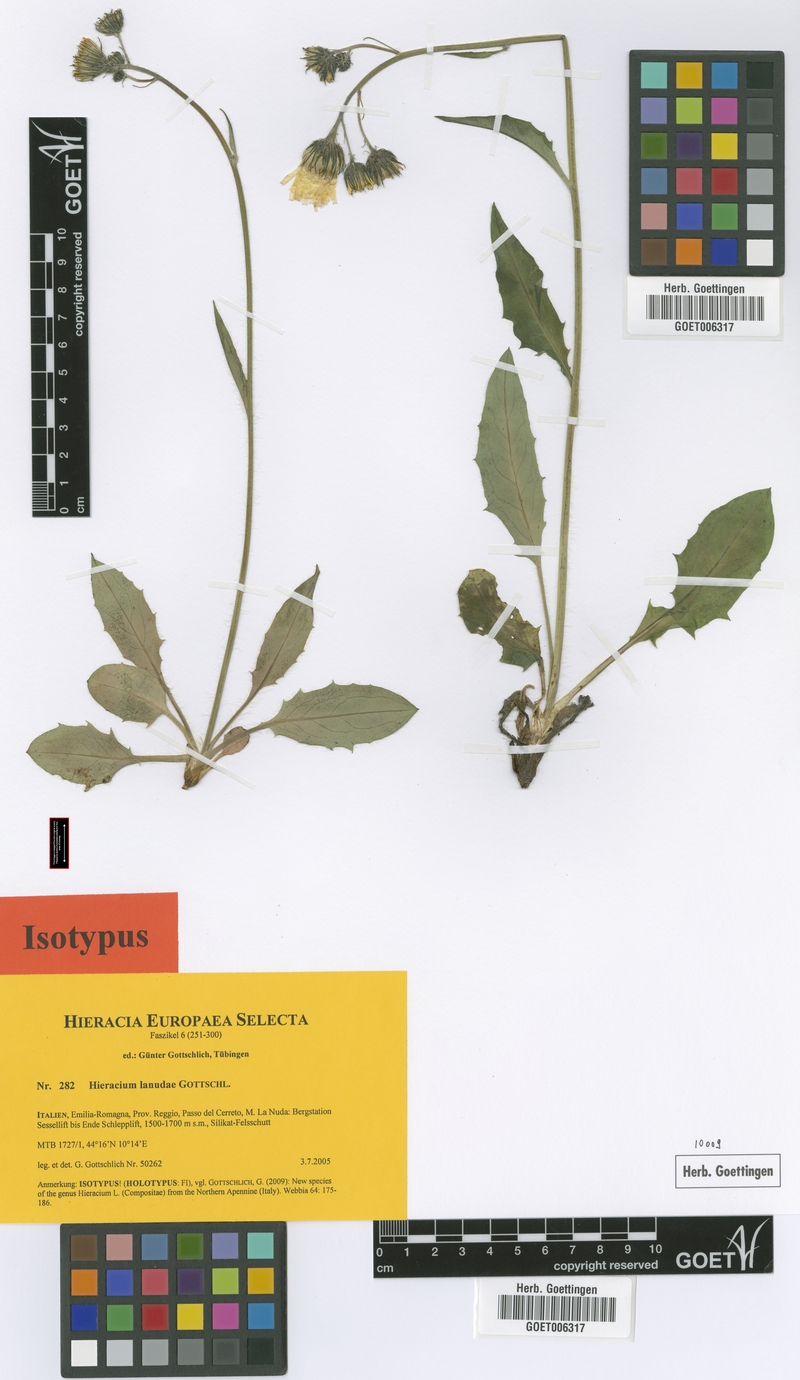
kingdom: Plantae
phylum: Tracheophyta
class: Magnoliopsida
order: Asterales
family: Asteraceae
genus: Hieracium
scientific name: Hieracium pallidum
